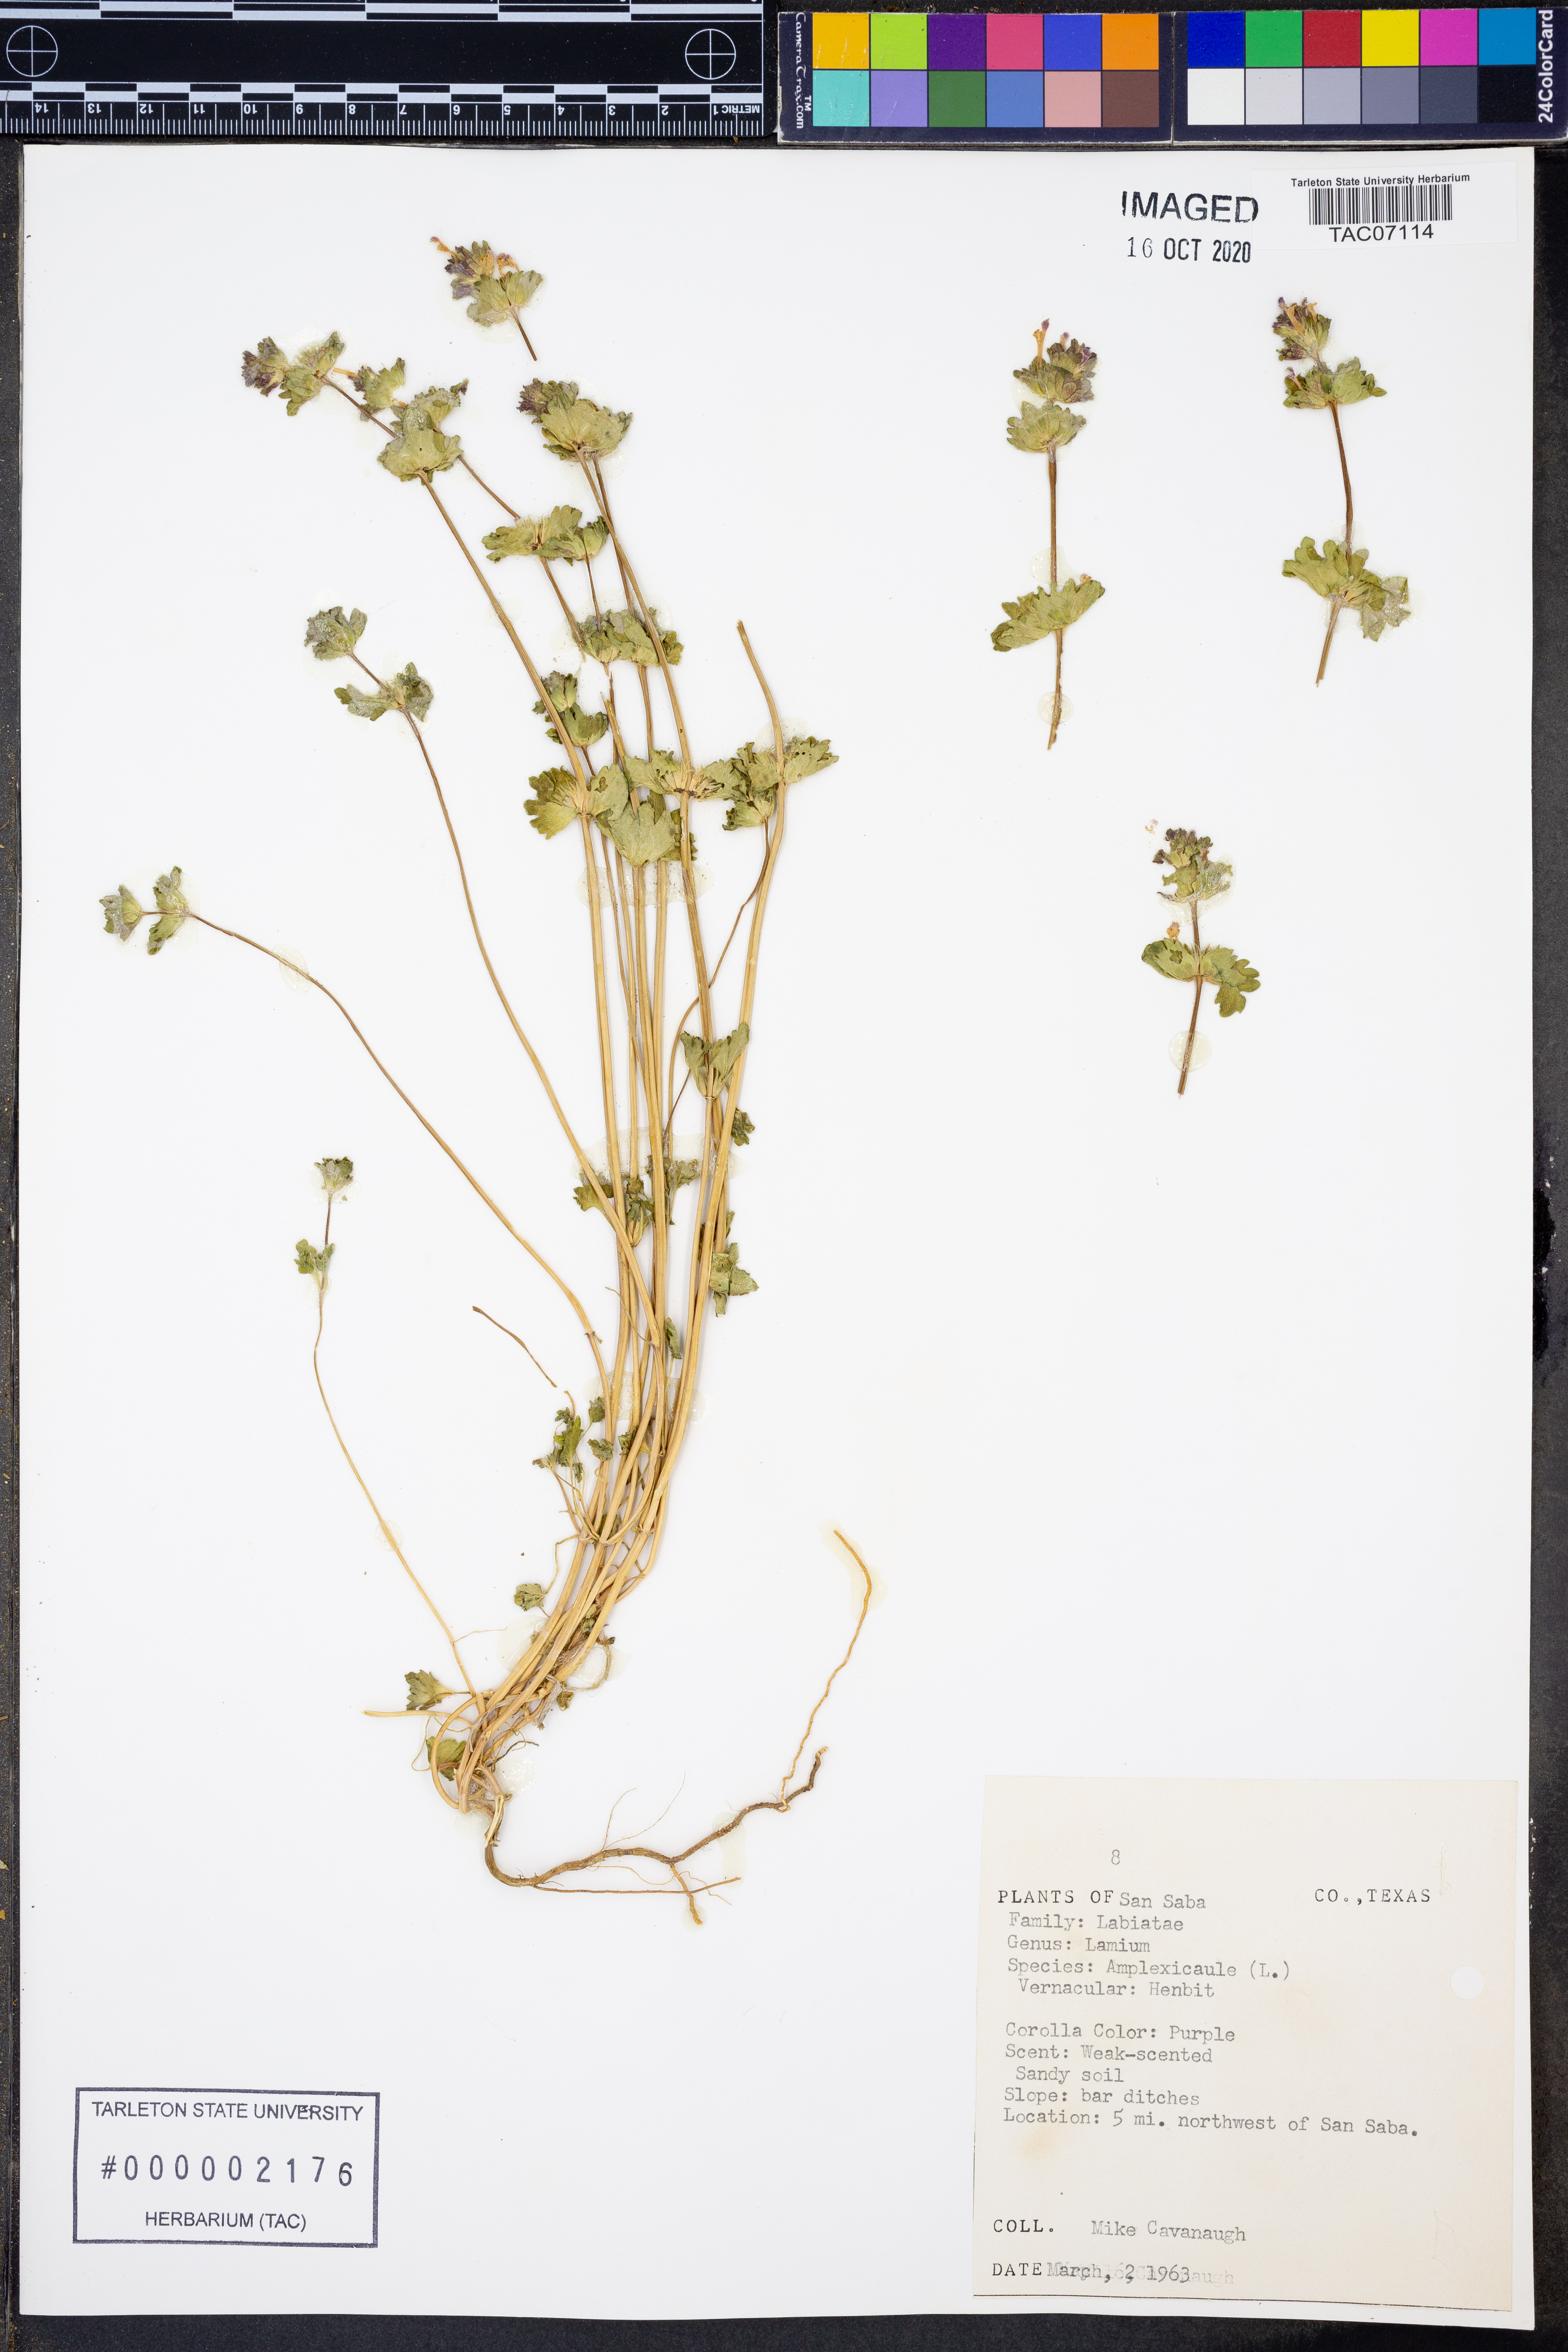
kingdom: Plantae
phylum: Tracheophyta
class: Magnoliopsida
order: Lamiales
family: Lamiaceae
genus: Lamium
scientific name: Lamium amplexicaule
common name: Henbit dead-nettle
